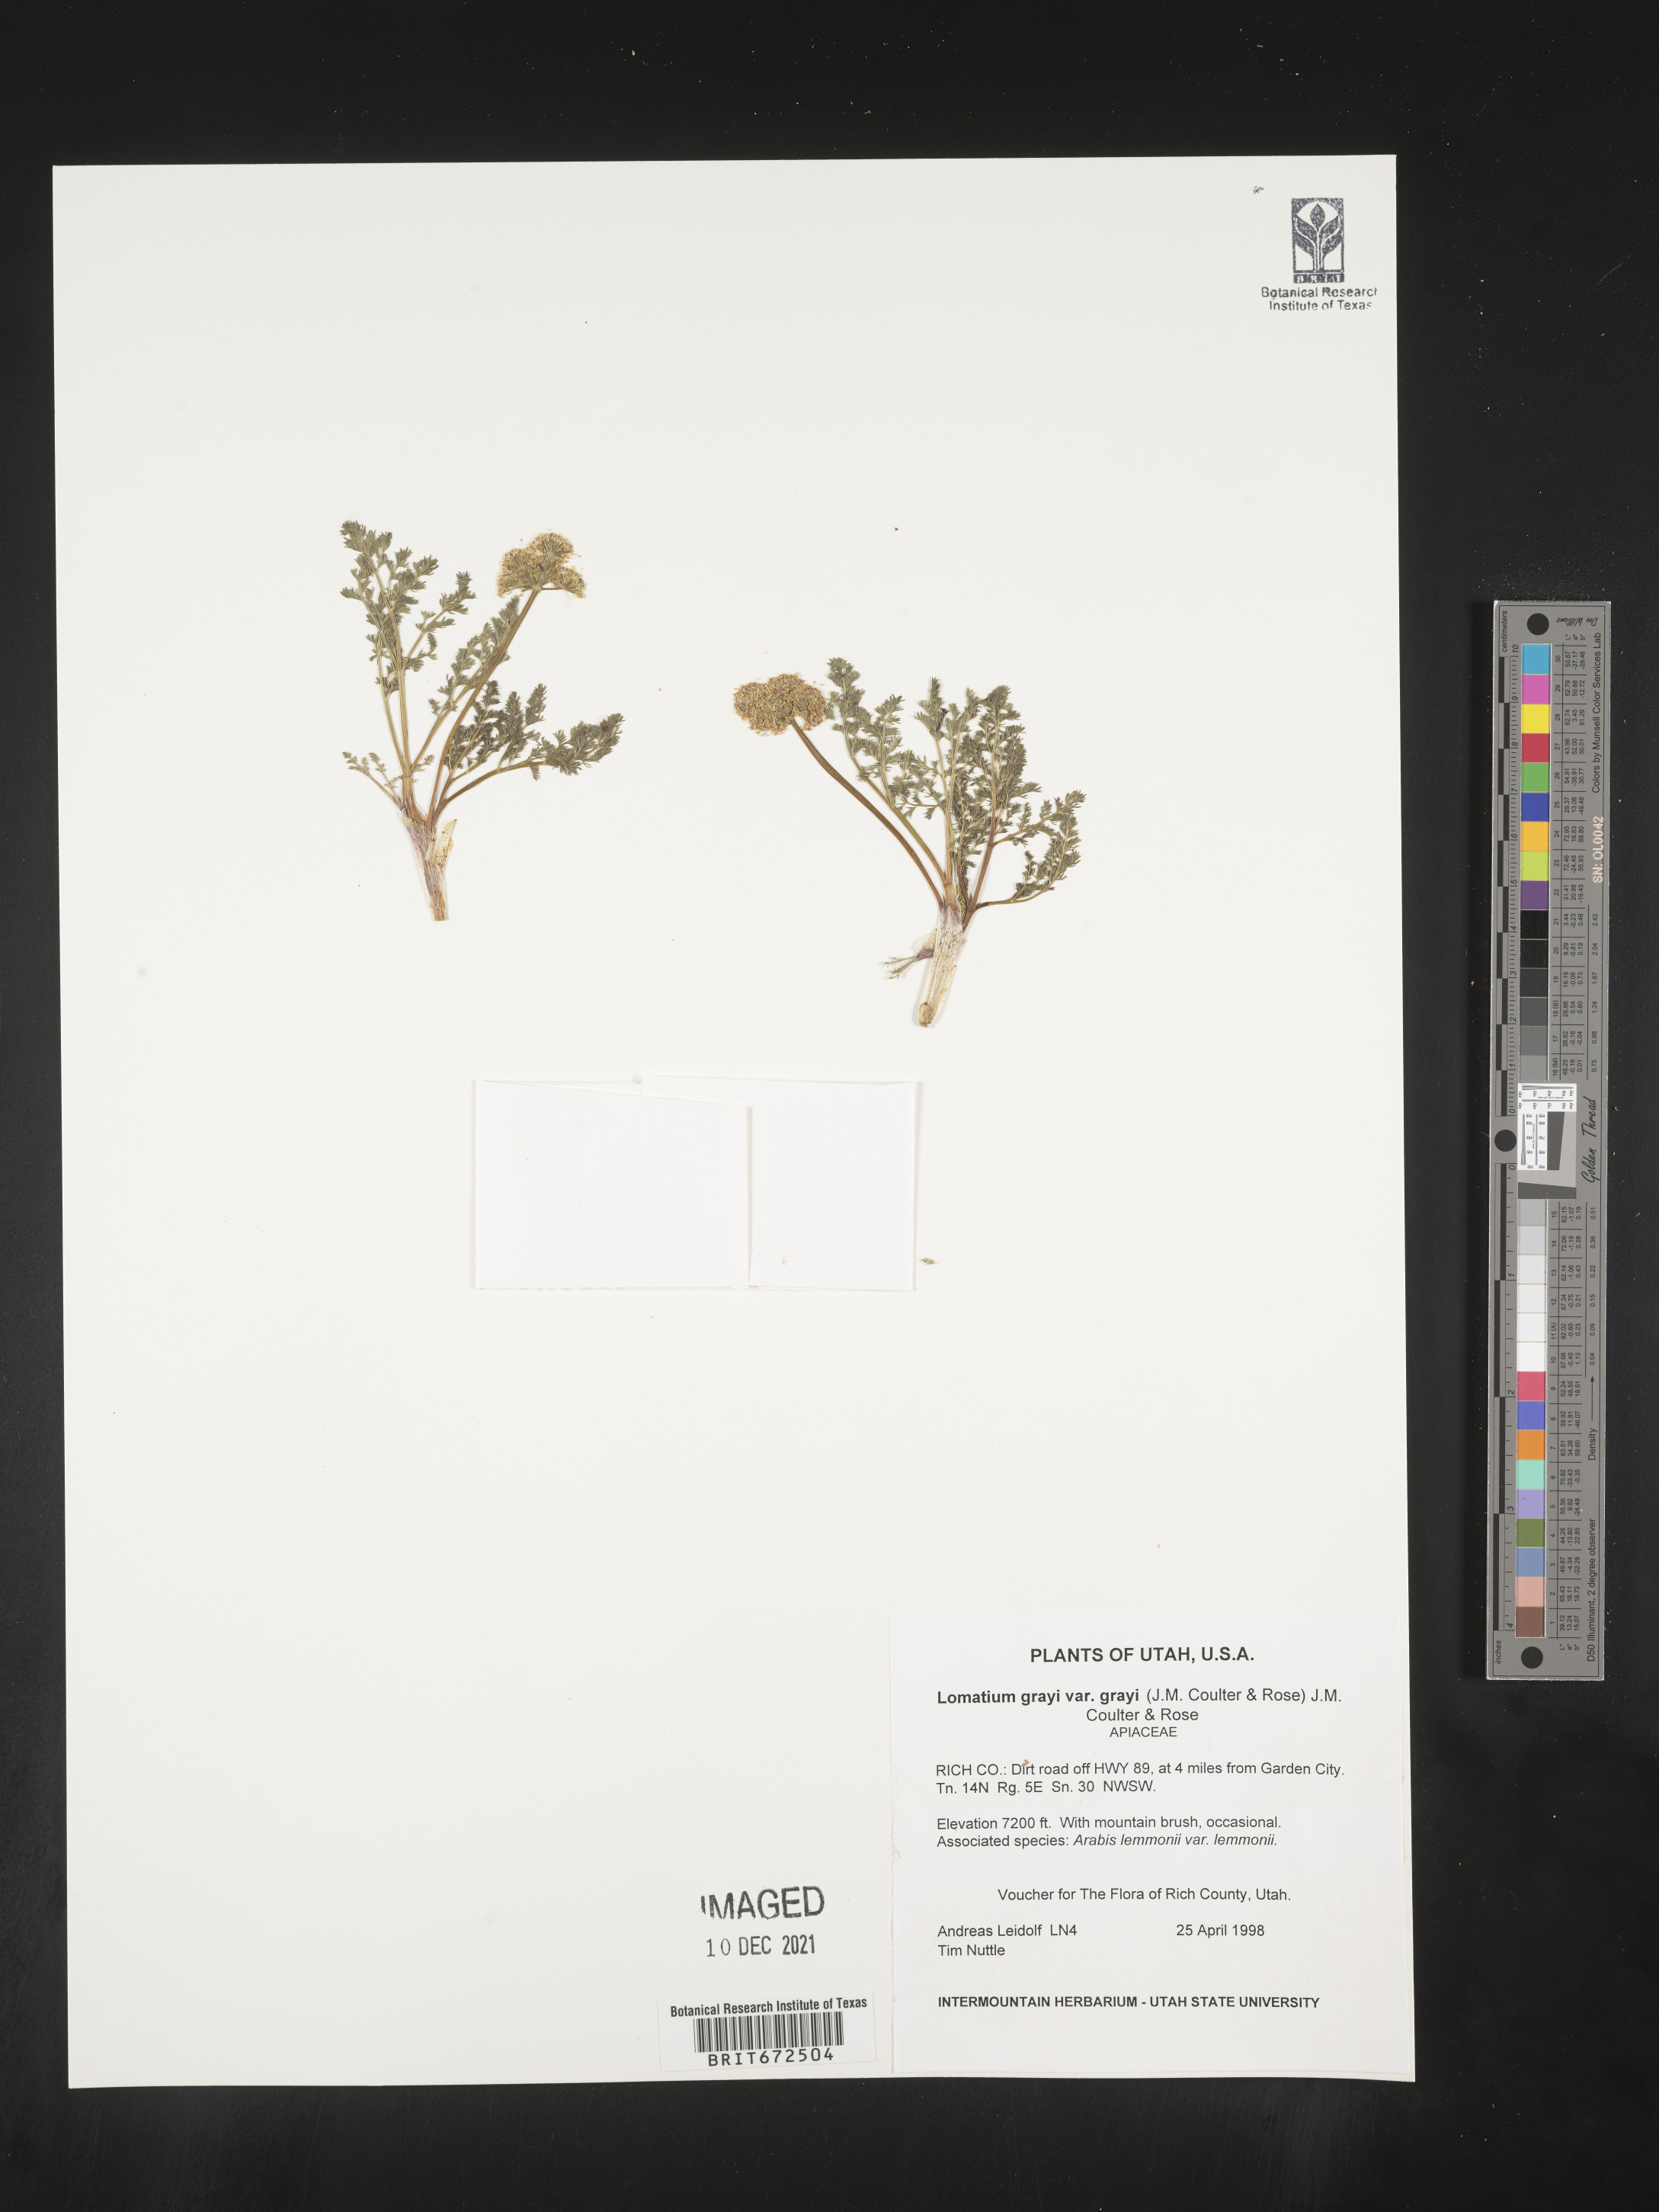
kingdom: Plantae
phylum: Tracheophyta
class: Magnoliopsida
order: Apiales
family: Apiaceae
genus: Lomatium
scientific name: Lomatium grayi
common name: Milfoil lomatium
